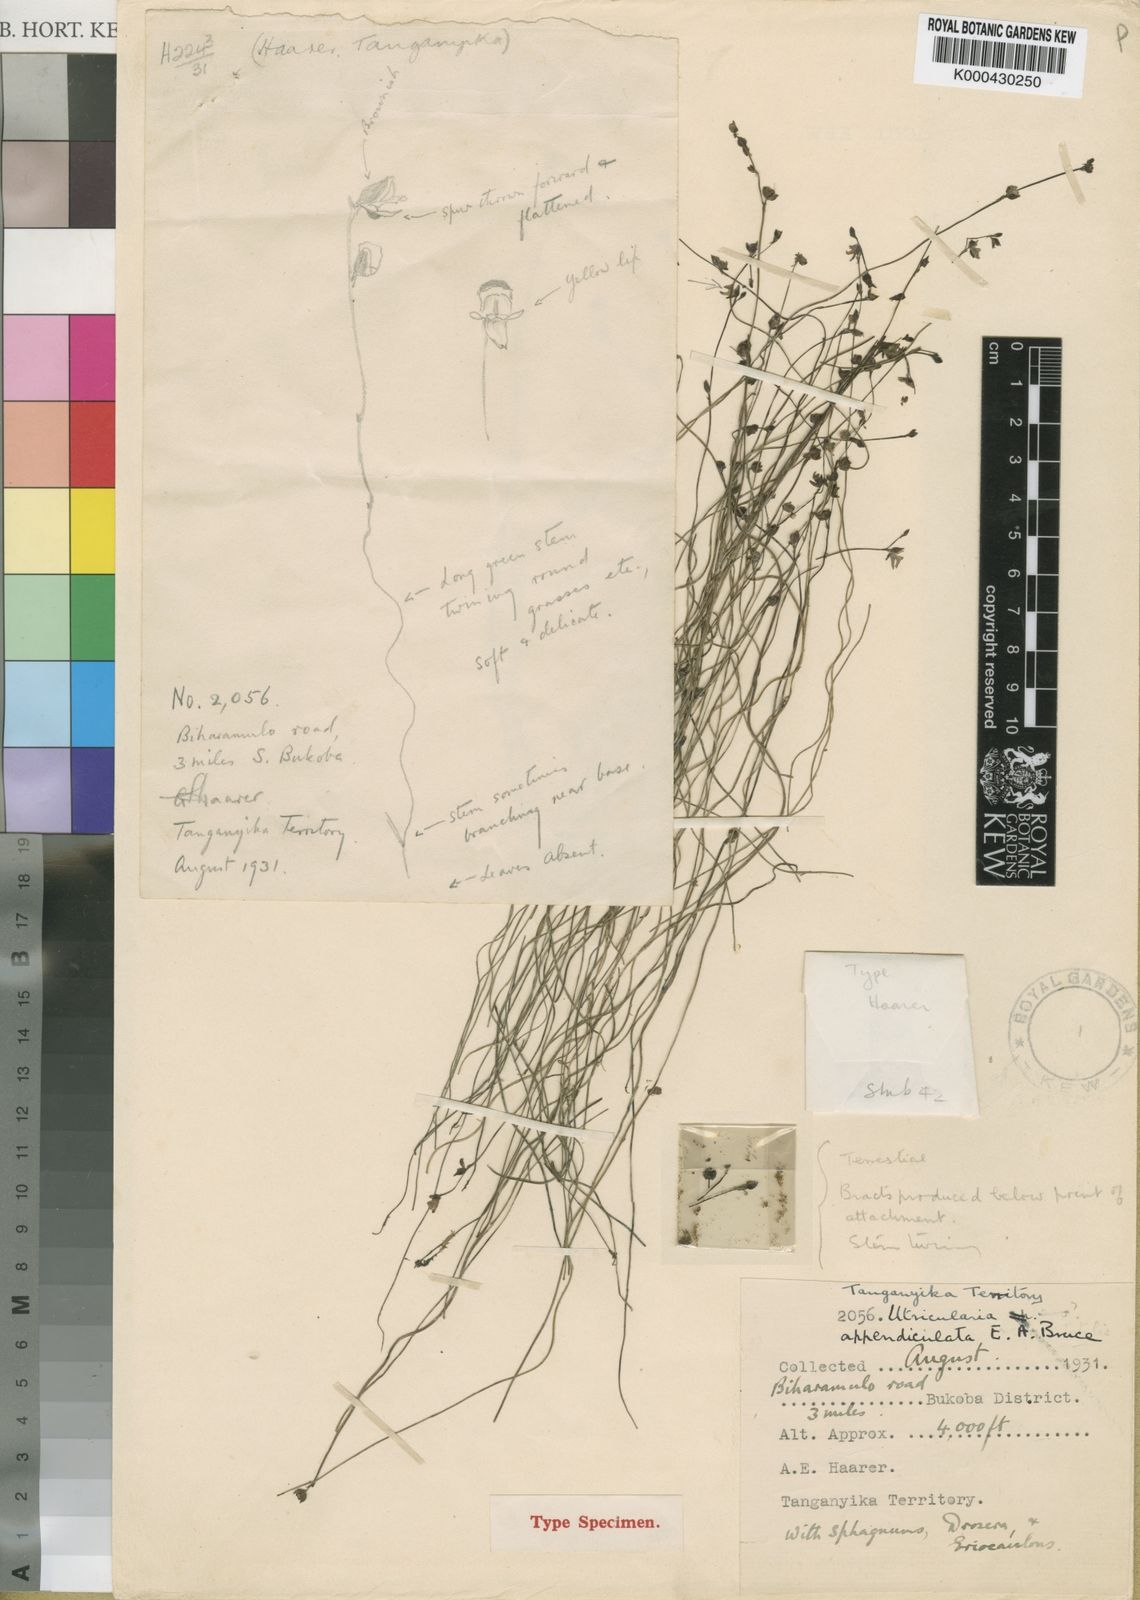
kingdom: Plantae
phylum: Tracheophyta
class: Magnoliopsida
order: Lamiales
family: Lentibulariaceae
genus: Utricularia
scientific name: Utricularia appendiculata
